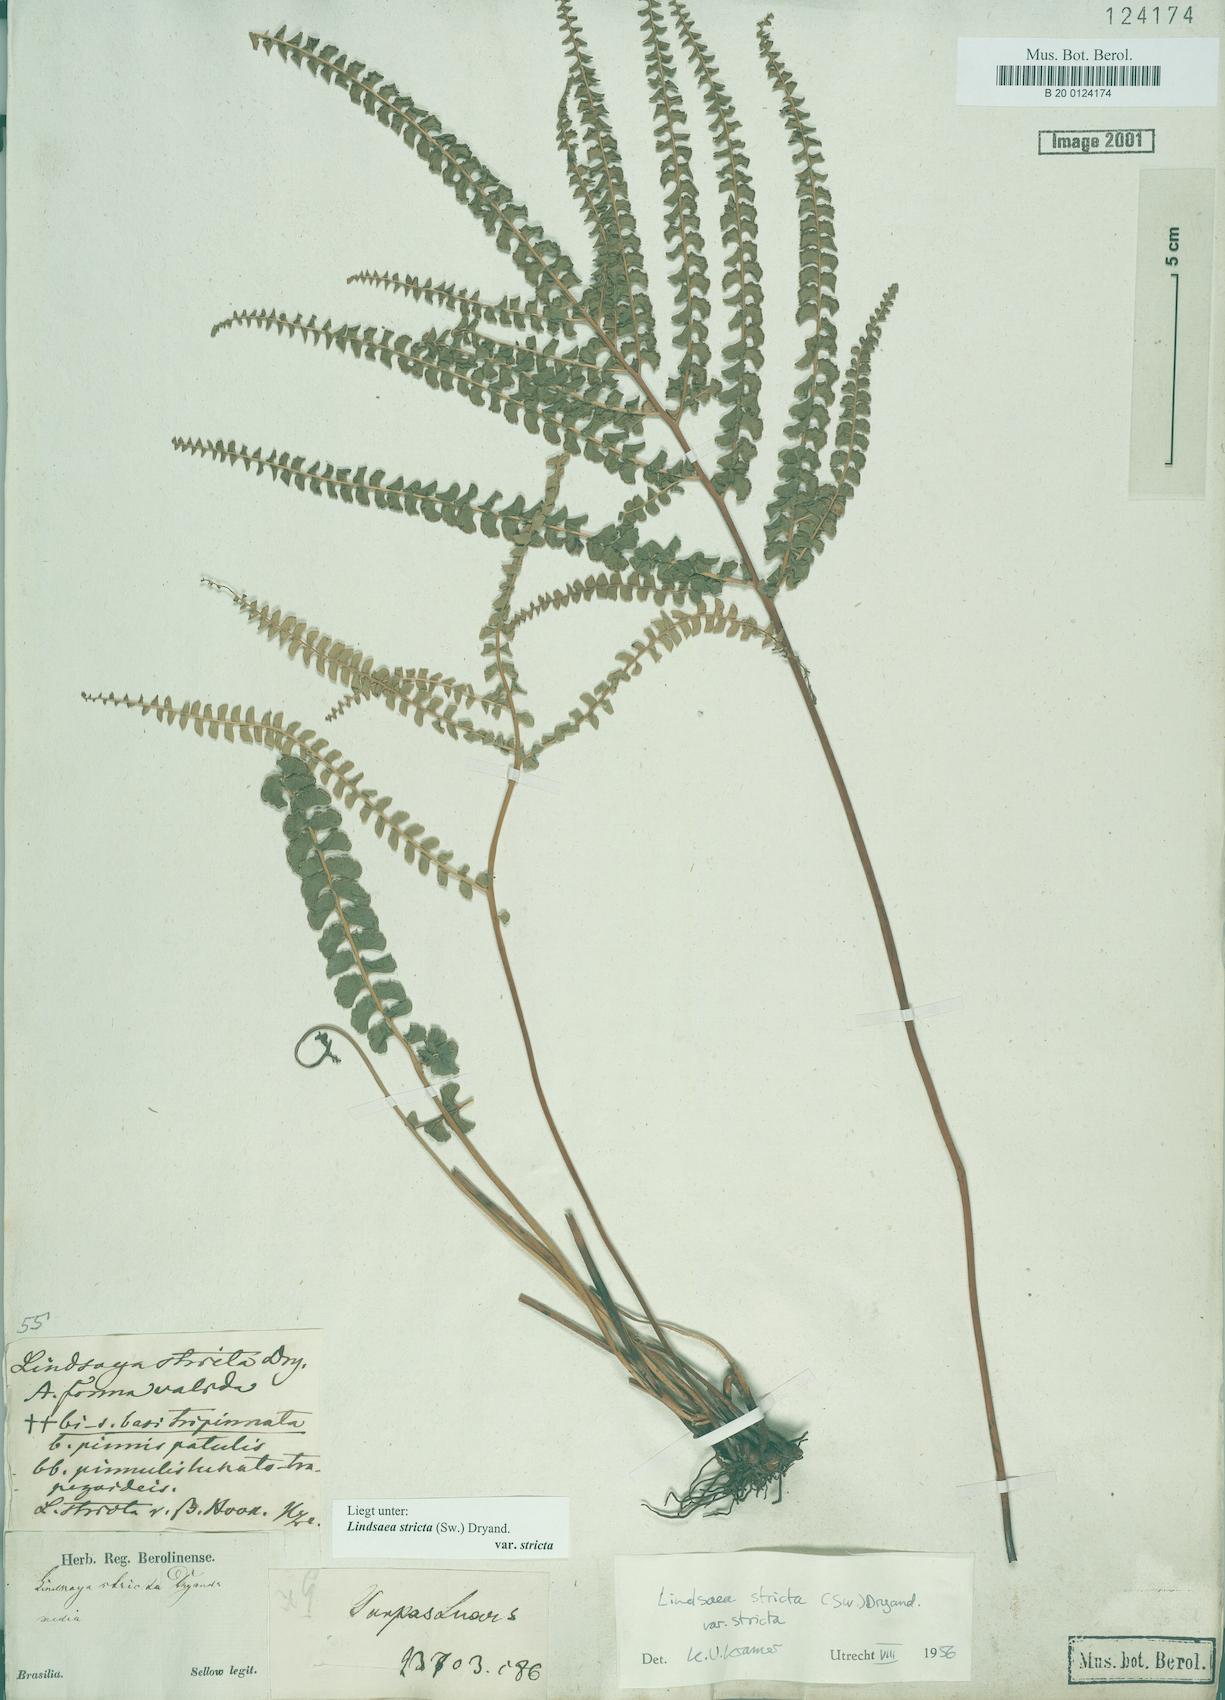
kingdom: Plantae
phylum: Tracheophyta
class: Polypodiopsida
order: Polypodiales
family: Lindsaeaceae
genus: Lindsaea
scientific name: Lindsaea stricta
